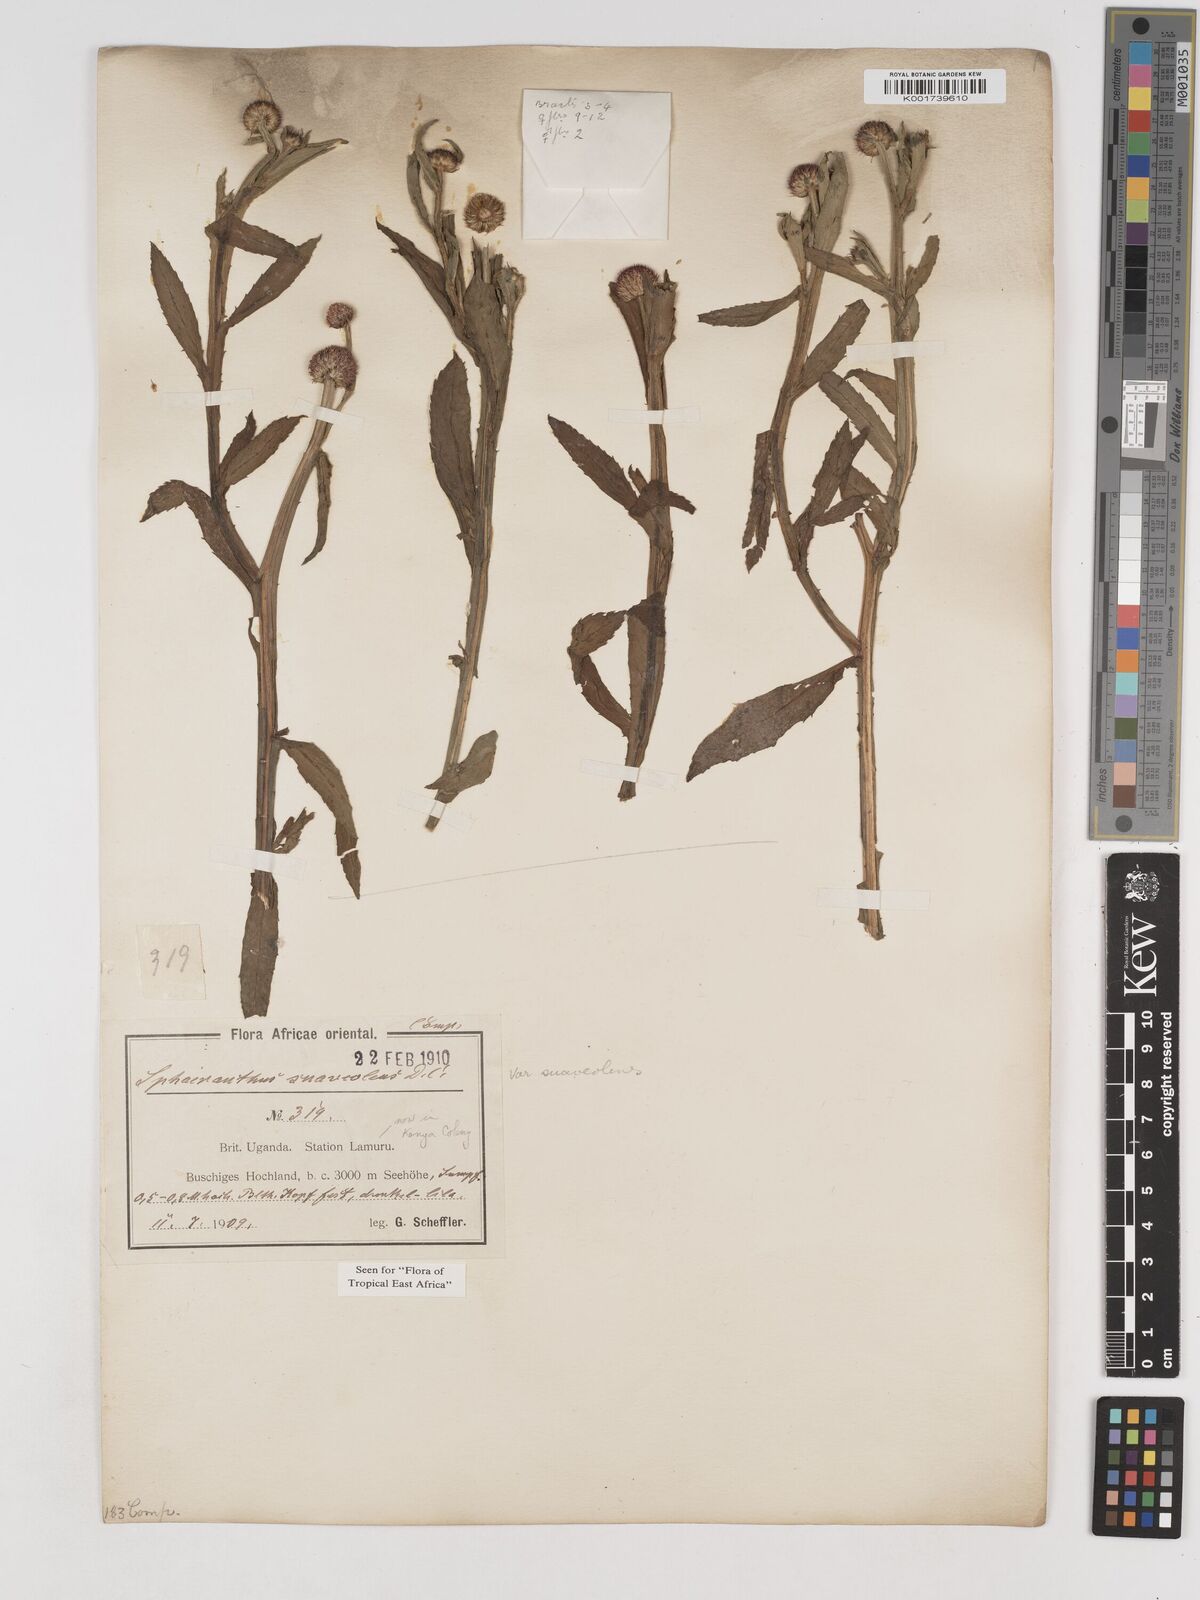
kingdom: Plantae
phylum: Tracheophyta
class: Magnoliopsida
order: Asterales
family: Asteraceae
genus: Sphaeranthus
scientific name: Sphaeranthus suaveolens
